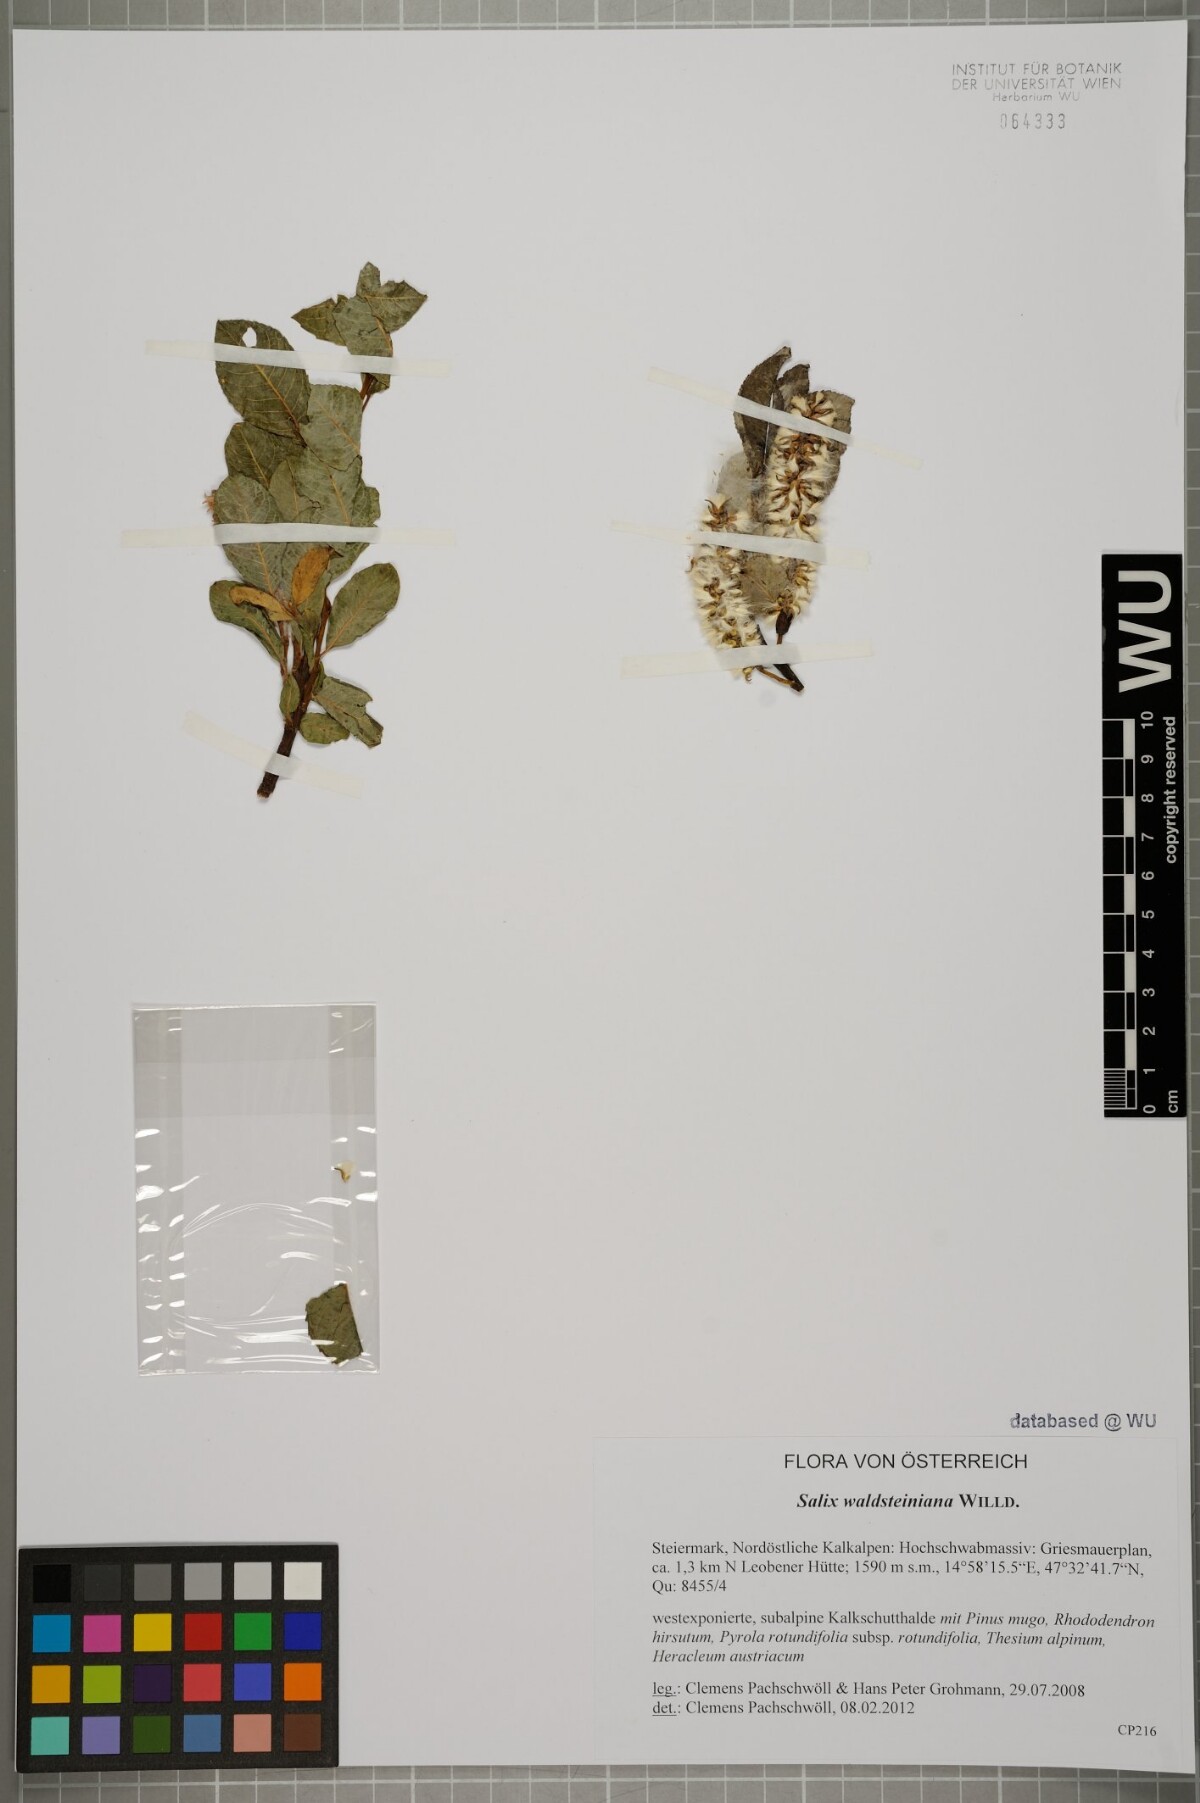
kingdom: Plantae
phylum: Tracheophyta
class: Magnoliopsida
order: Malpighiales
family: Salicaceae
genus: Salix
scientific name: Salix waldsteiniana
